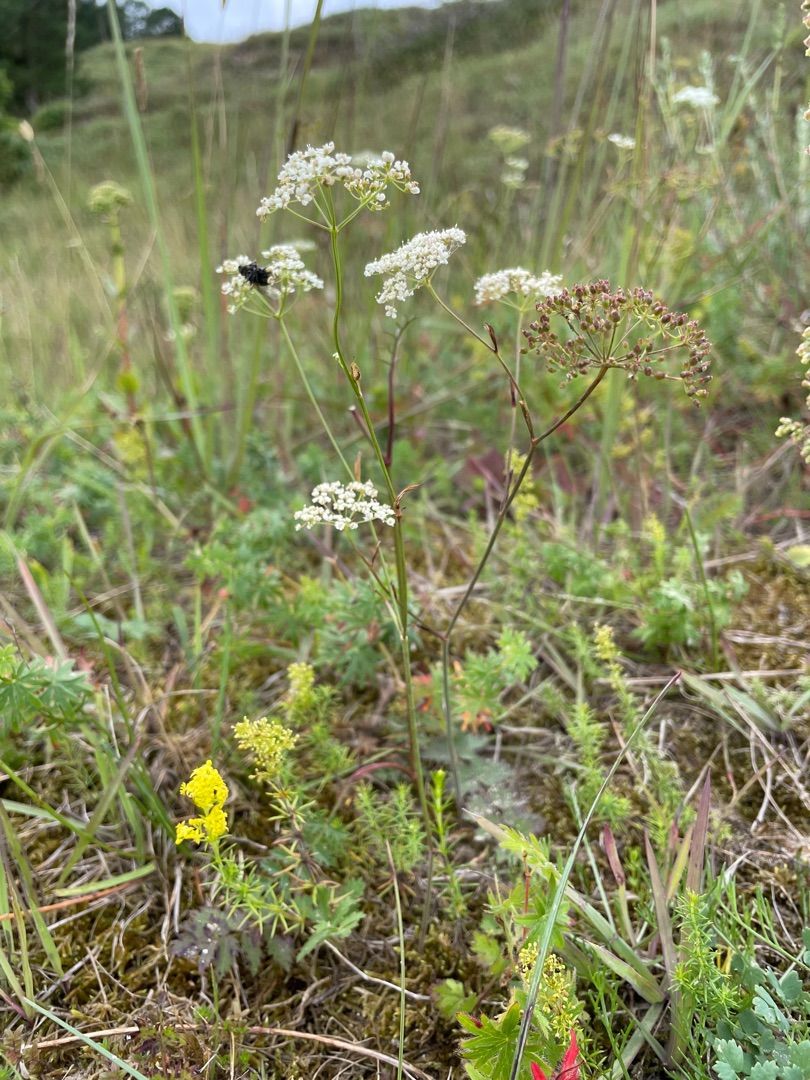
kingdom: Plantae
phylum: Tracheophyta
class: Magnoliopsida
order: Apiales
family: Apiaceae
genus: Pimpinella
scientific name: Pimpinella saxifraga
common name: Almindelig pimpinelle
